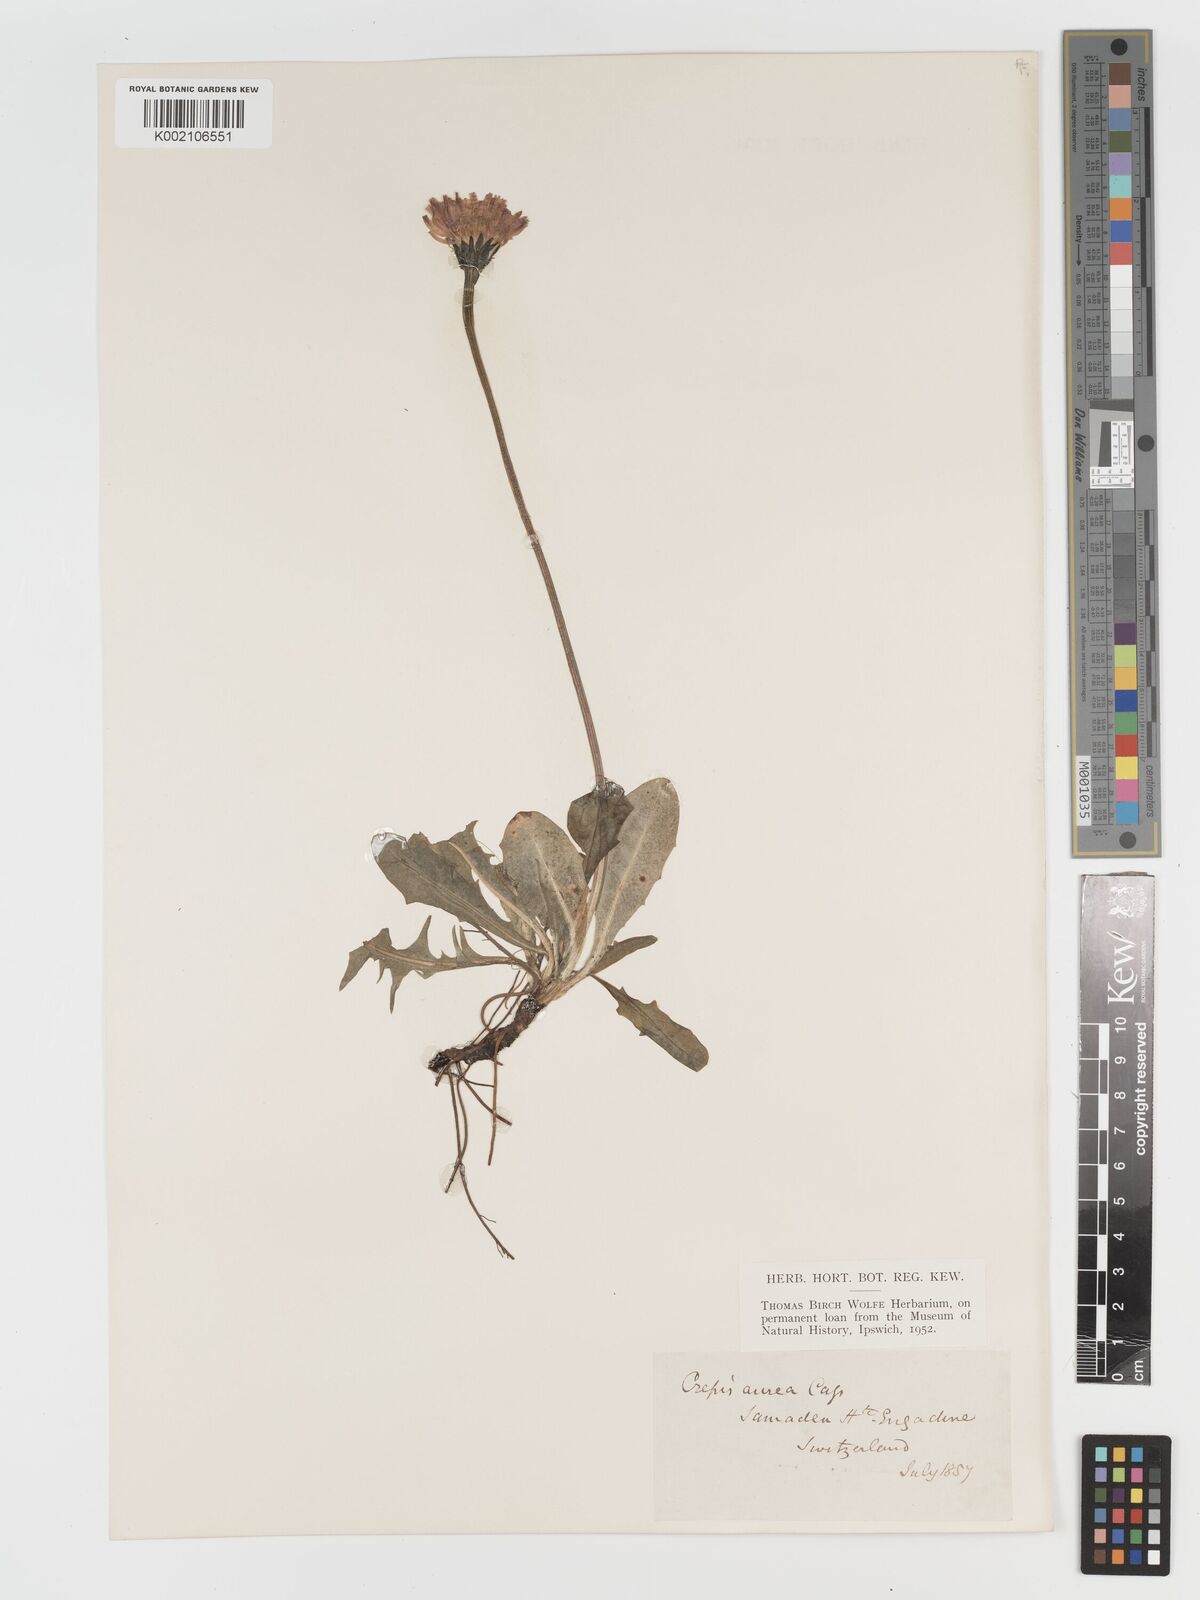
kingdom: Plantae
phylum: Tracheophyta
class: Magnoliopsida
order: Asterales
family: Asteraceae
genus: Crepis
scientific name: Crepis aurea
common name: Golden hawk's-beard
